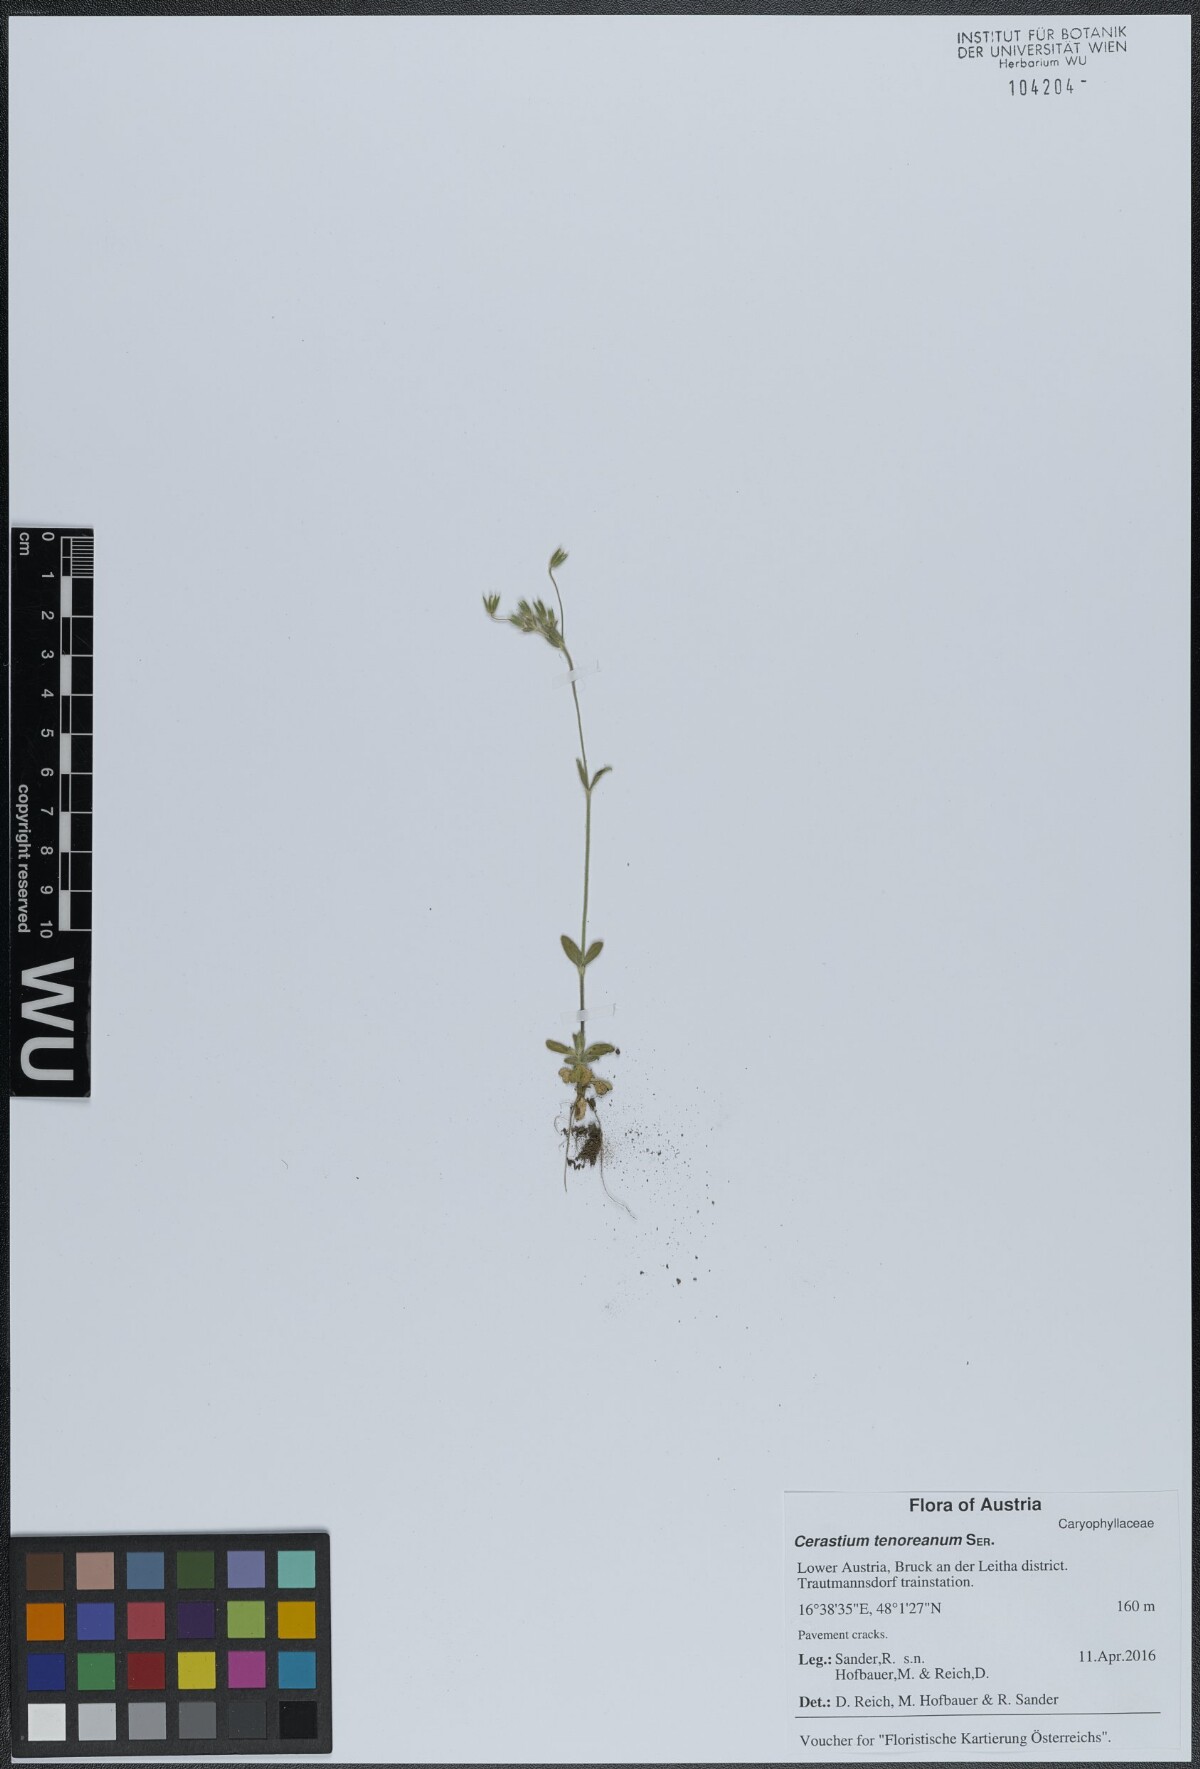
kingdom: Plantae
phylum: Tracheophyta
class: Magnoliopsida
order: Caryophyllales
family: Caryophyllaceae
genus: Cerastium
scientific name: Cerastium tenoreanum
